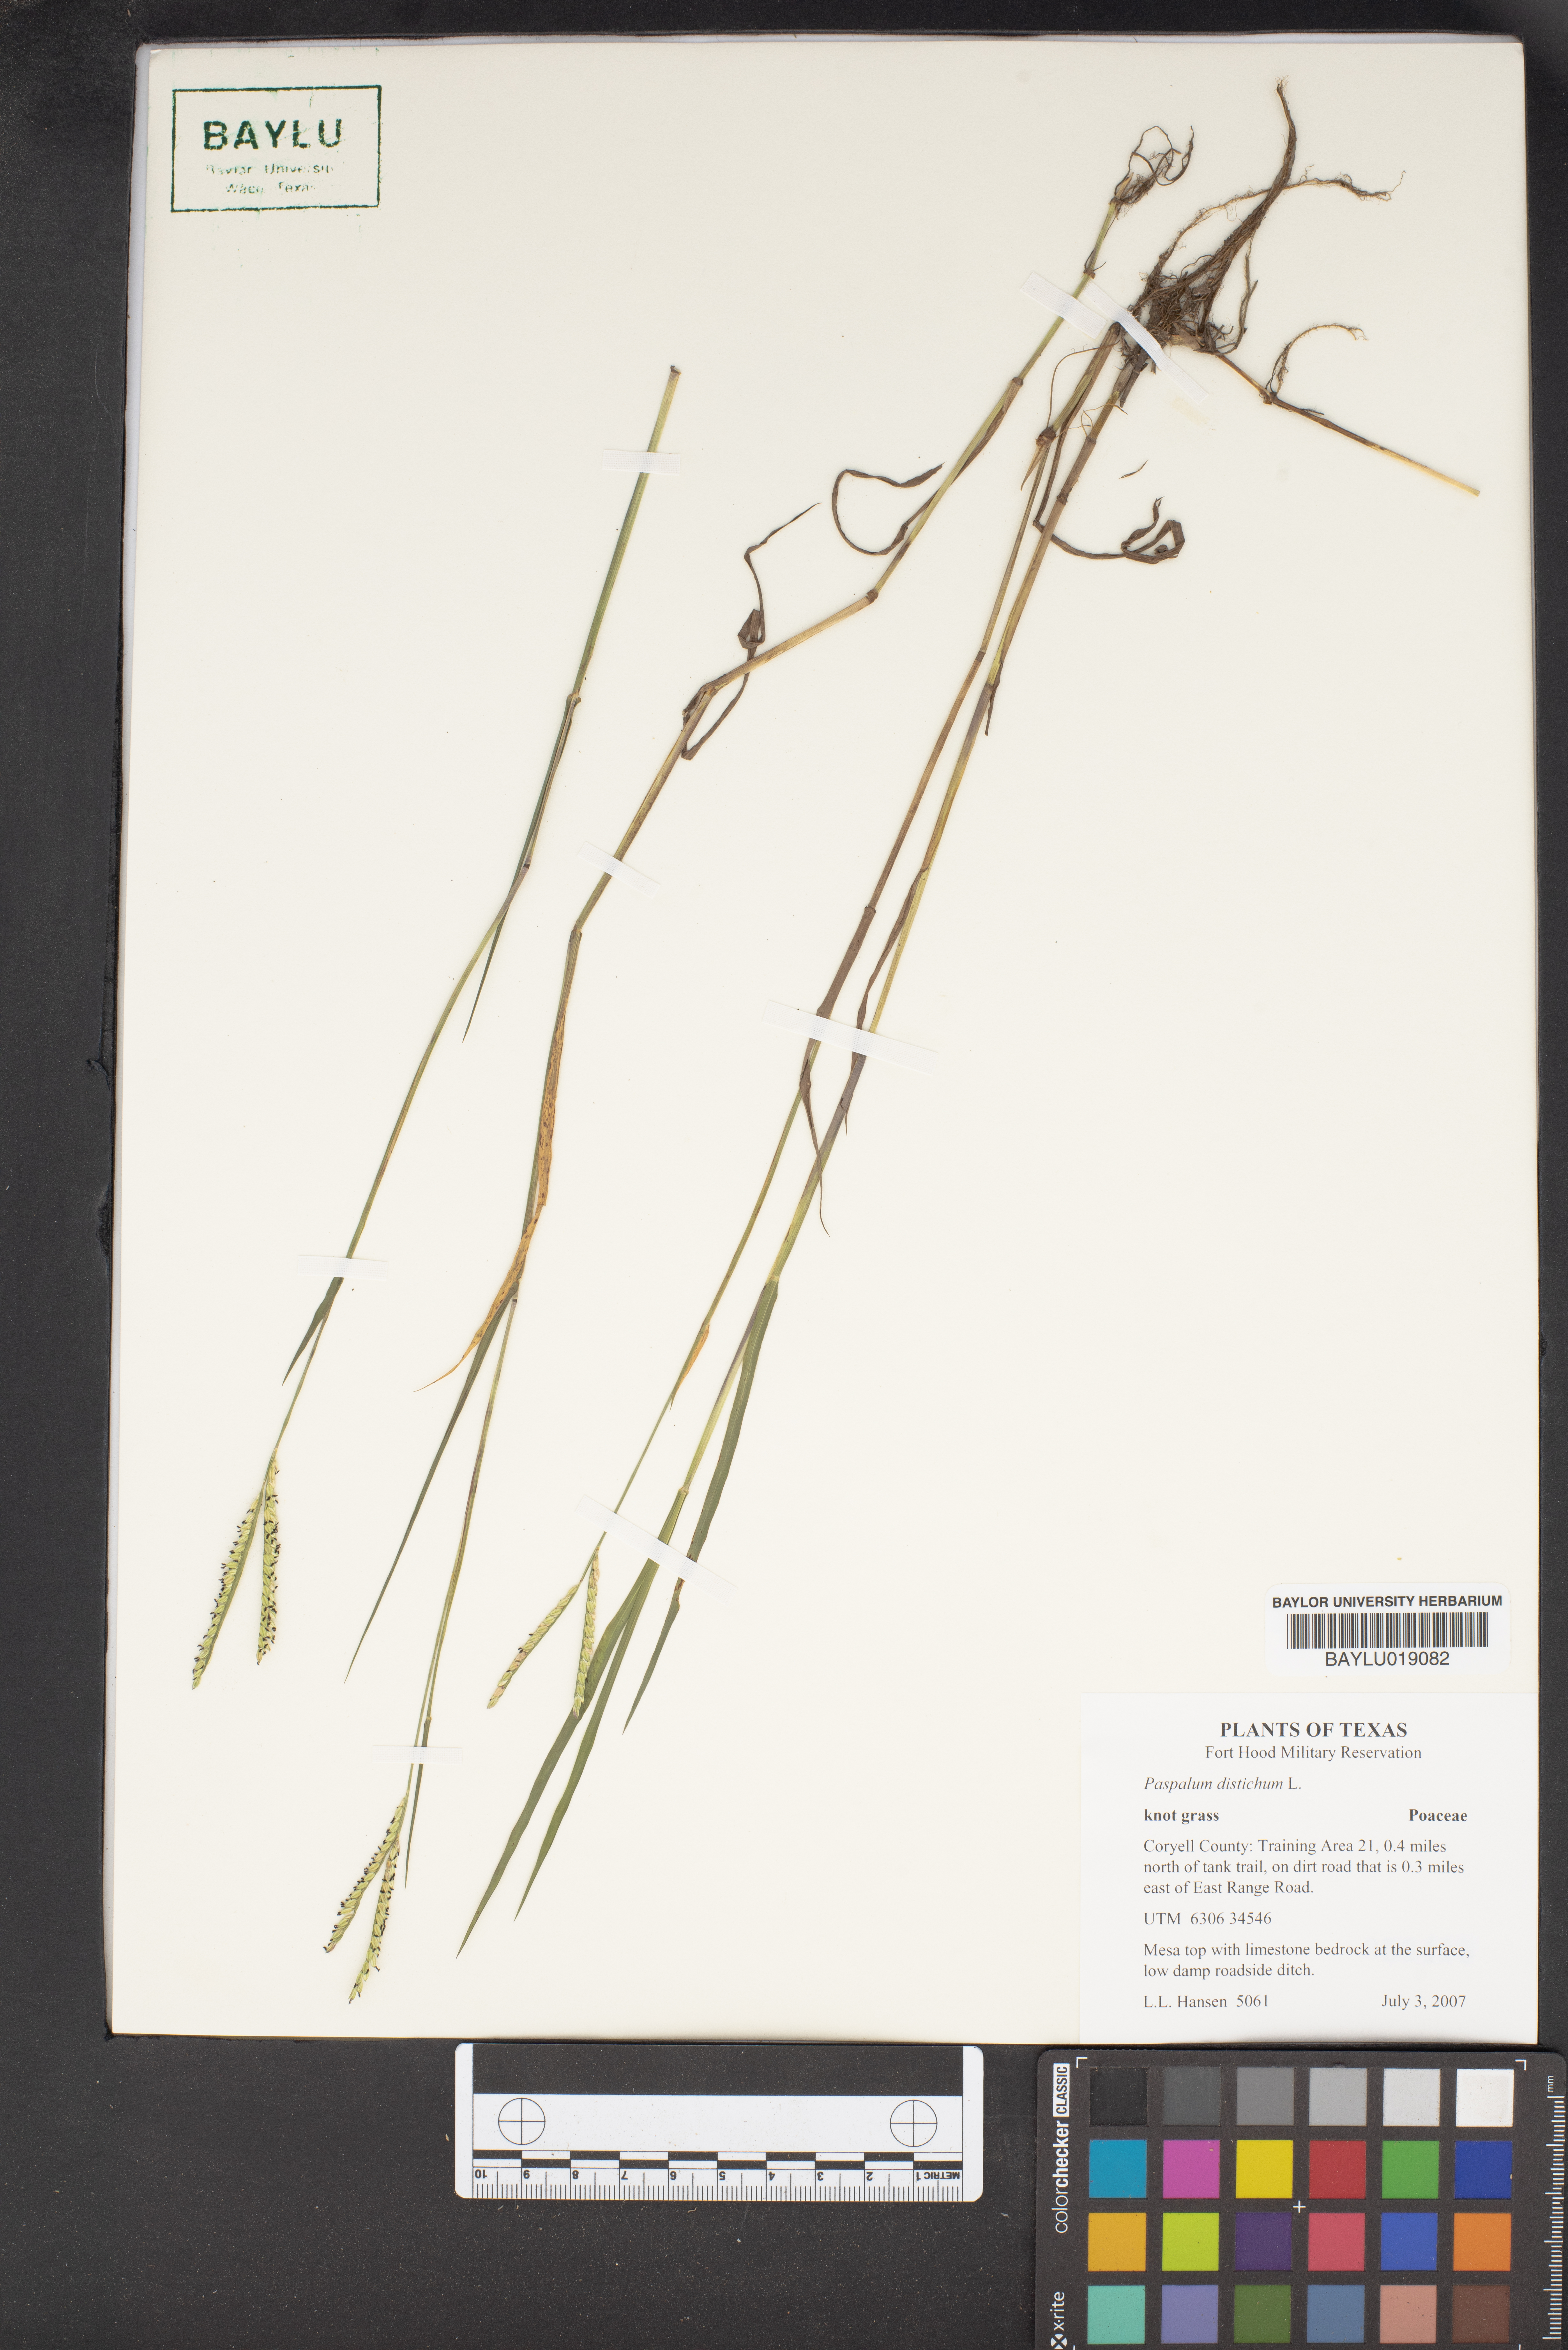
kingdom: Plantae
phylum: Tracheophyta
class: Liliopsida
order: Poales
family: Poaceae
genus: Paspalum
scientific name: Paspalum distichum
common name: Knotgrass
